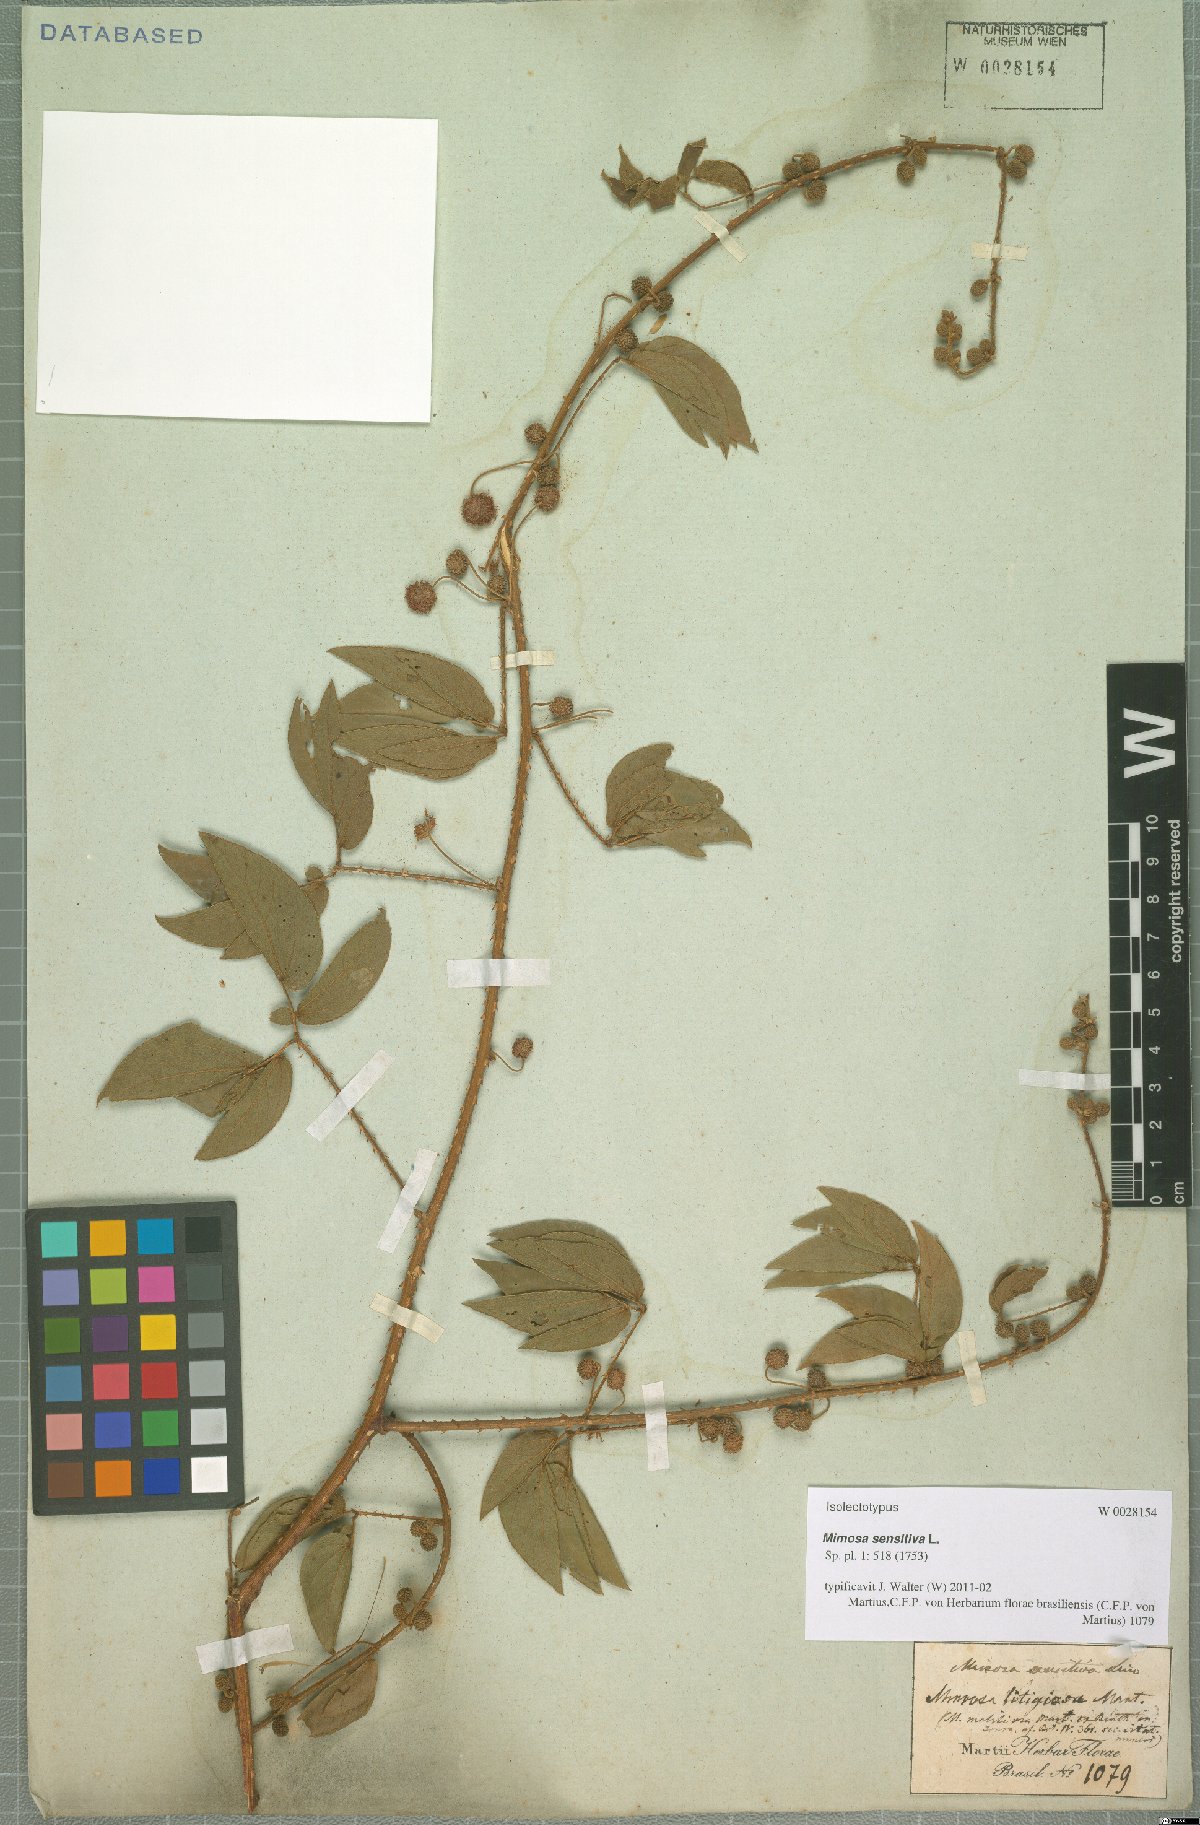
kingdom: Plantae
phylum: Tracheophyta
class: Magnoliopsida
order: Fabales
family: Fabaceae
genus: Mimosa
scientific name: Mimosa sensitiva
